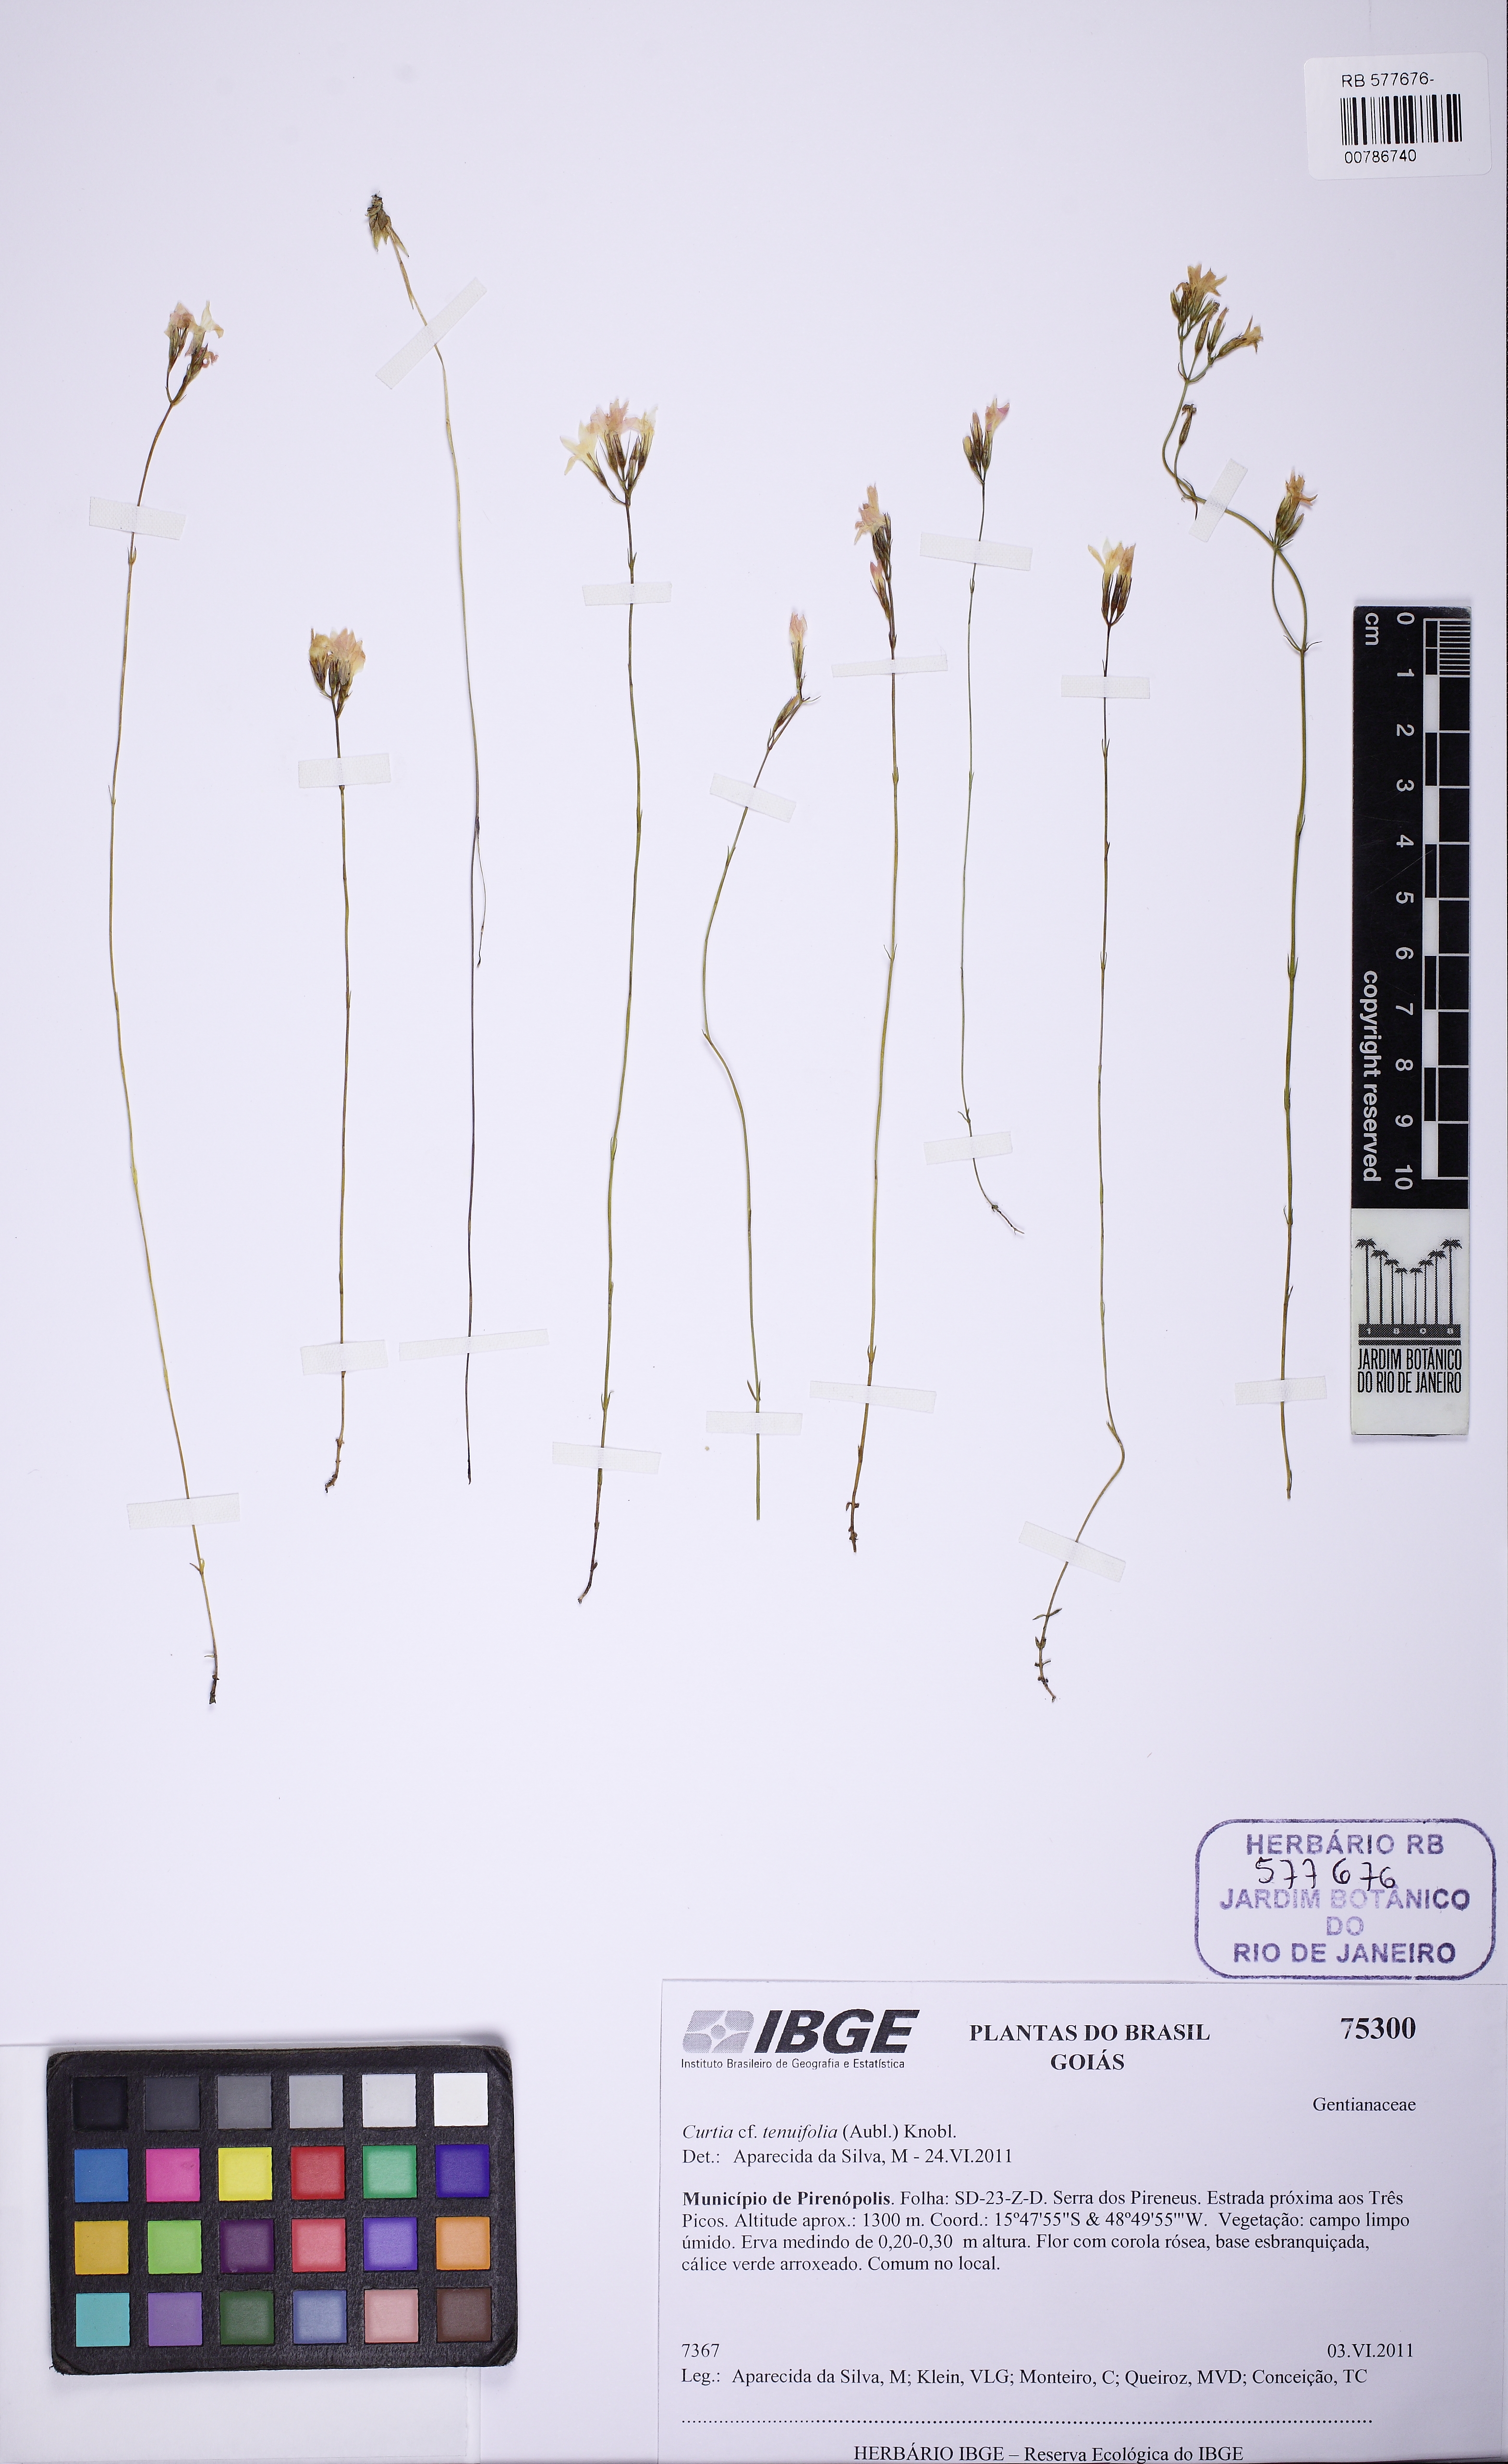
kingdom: Plantae
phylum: Tracheophyta
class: Magnoliopsida
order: Gentianales
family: Gentianaceae
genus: Curtia
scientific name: Curtia tenuifolia
